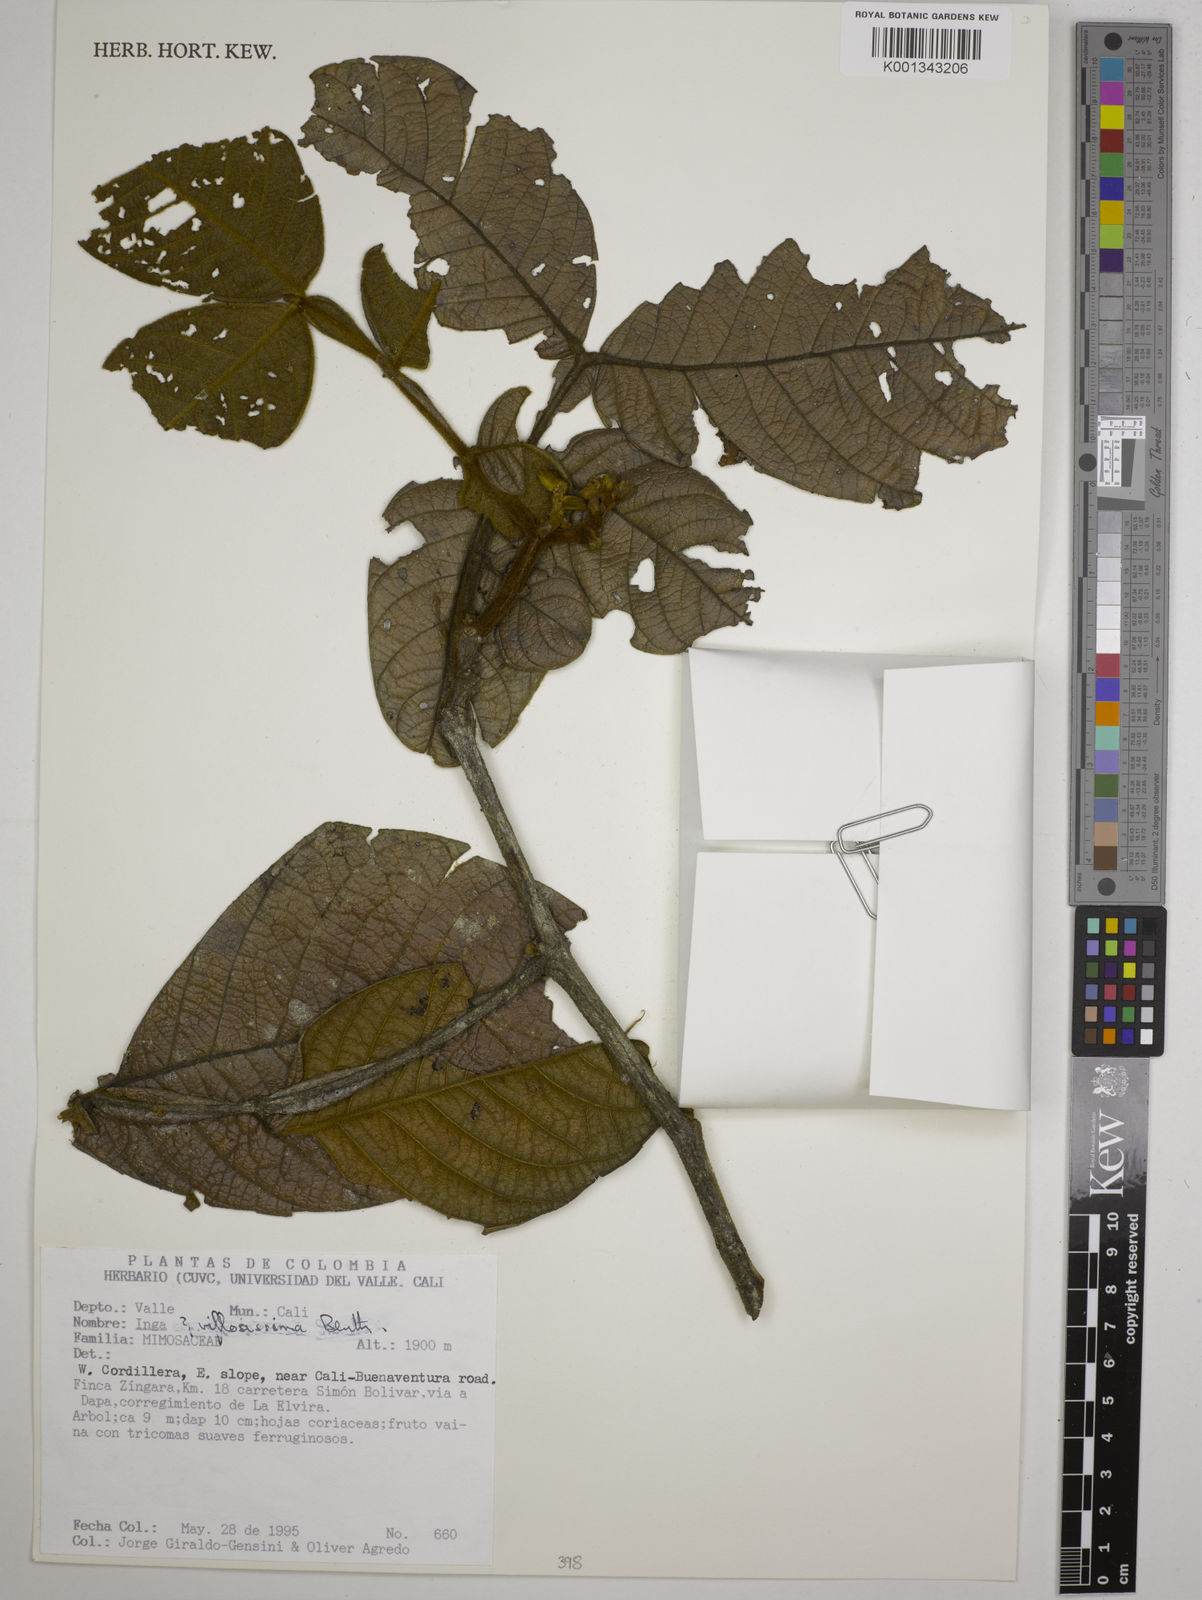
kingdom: Plantae
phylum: Tracheophyta
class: Magnoliopsida
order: Fabales
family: Fabaceae
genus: Inga
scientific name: Inga villosissima
